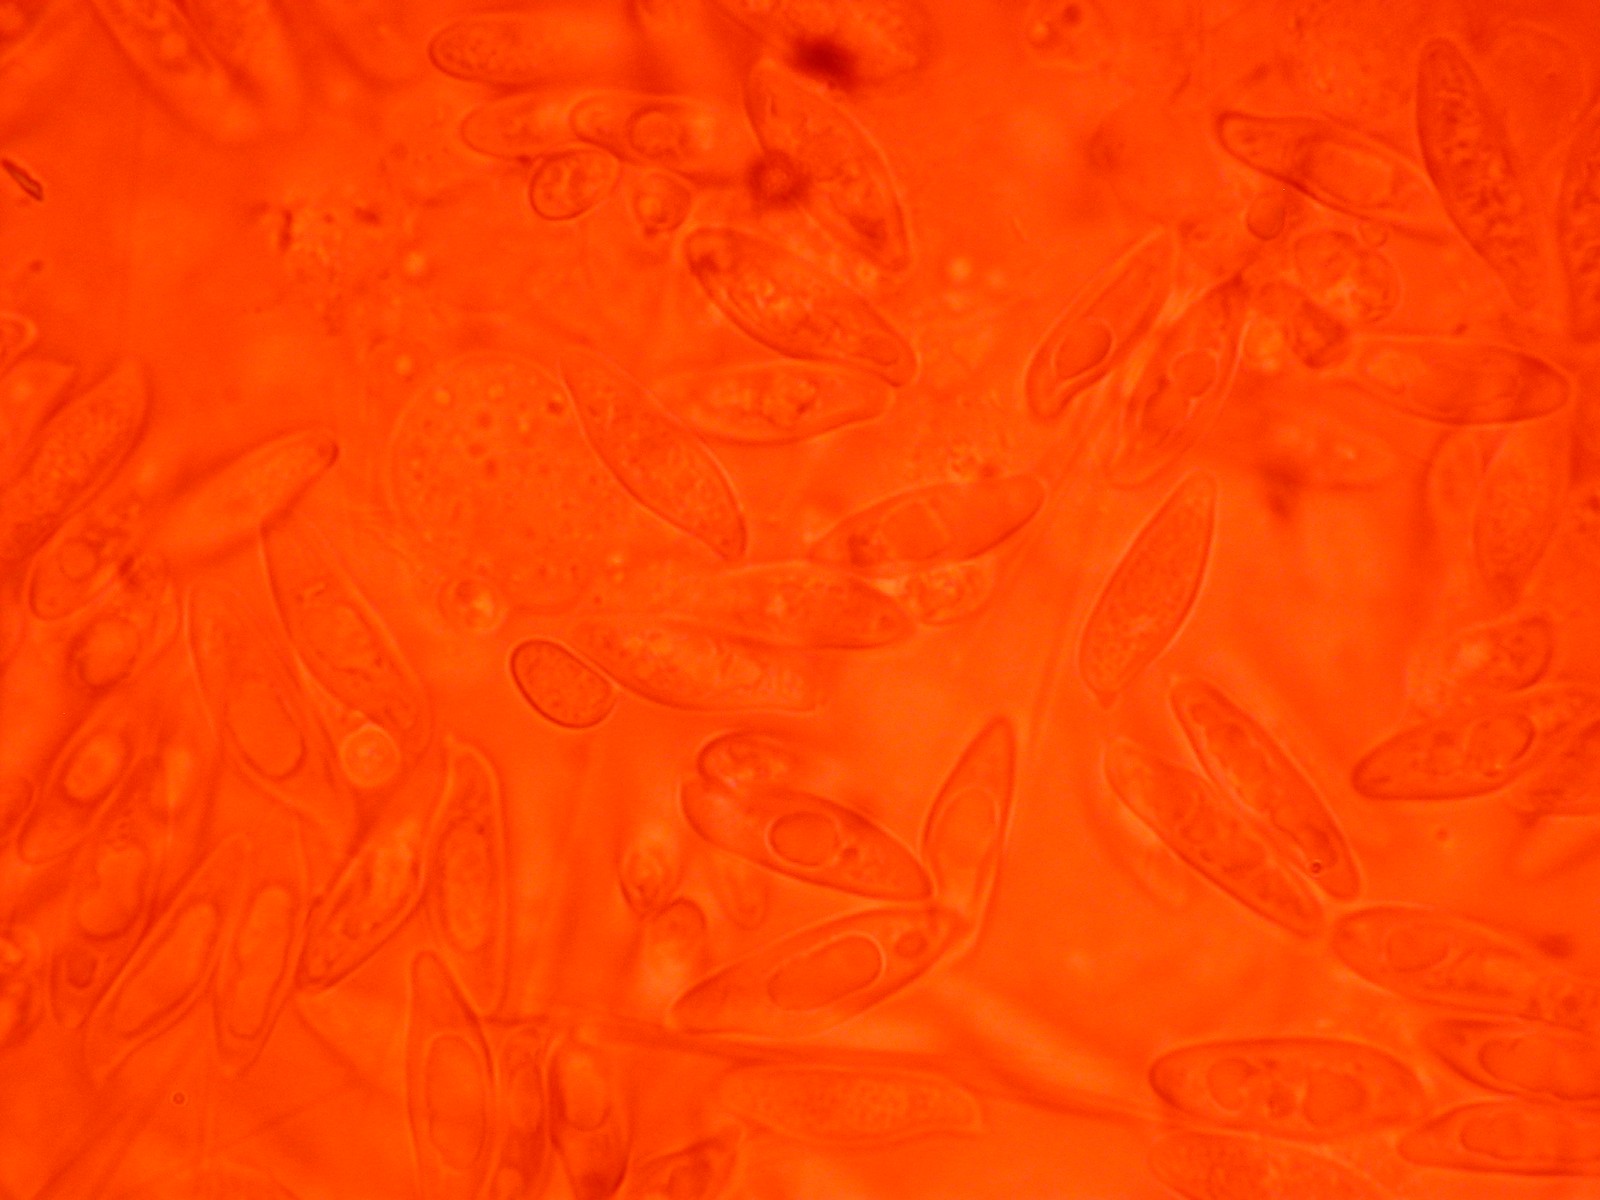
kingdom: Fungi
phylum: Basidiomycota
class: Agaricomycetes
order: Agaricales
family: Agaricaceae
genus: Lepiota
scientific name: Lepiota magnispora
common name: gulfnugget parasolhat
